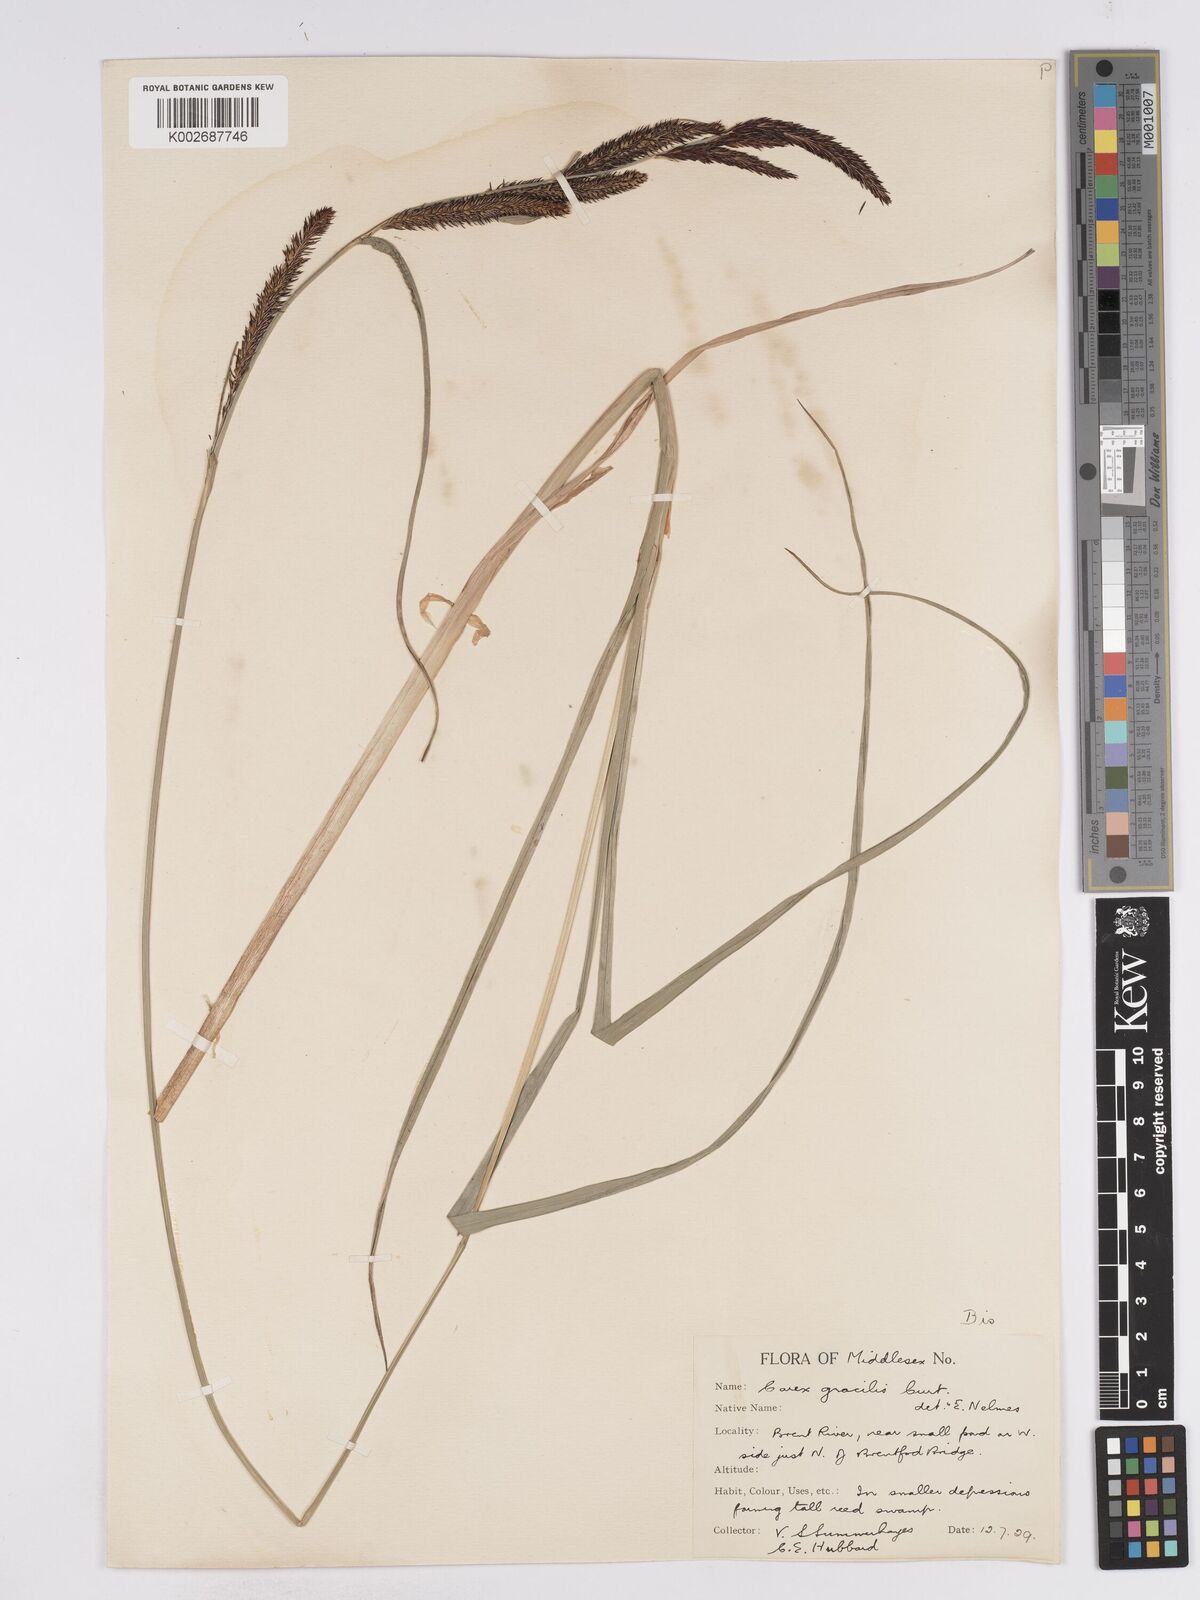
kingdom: Plantae
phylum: Tracheophyta
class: Liliopsida
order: Poales
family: Cyperaceae
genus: Carex
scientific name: Carex acuta
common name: Slender tufted-sedge
